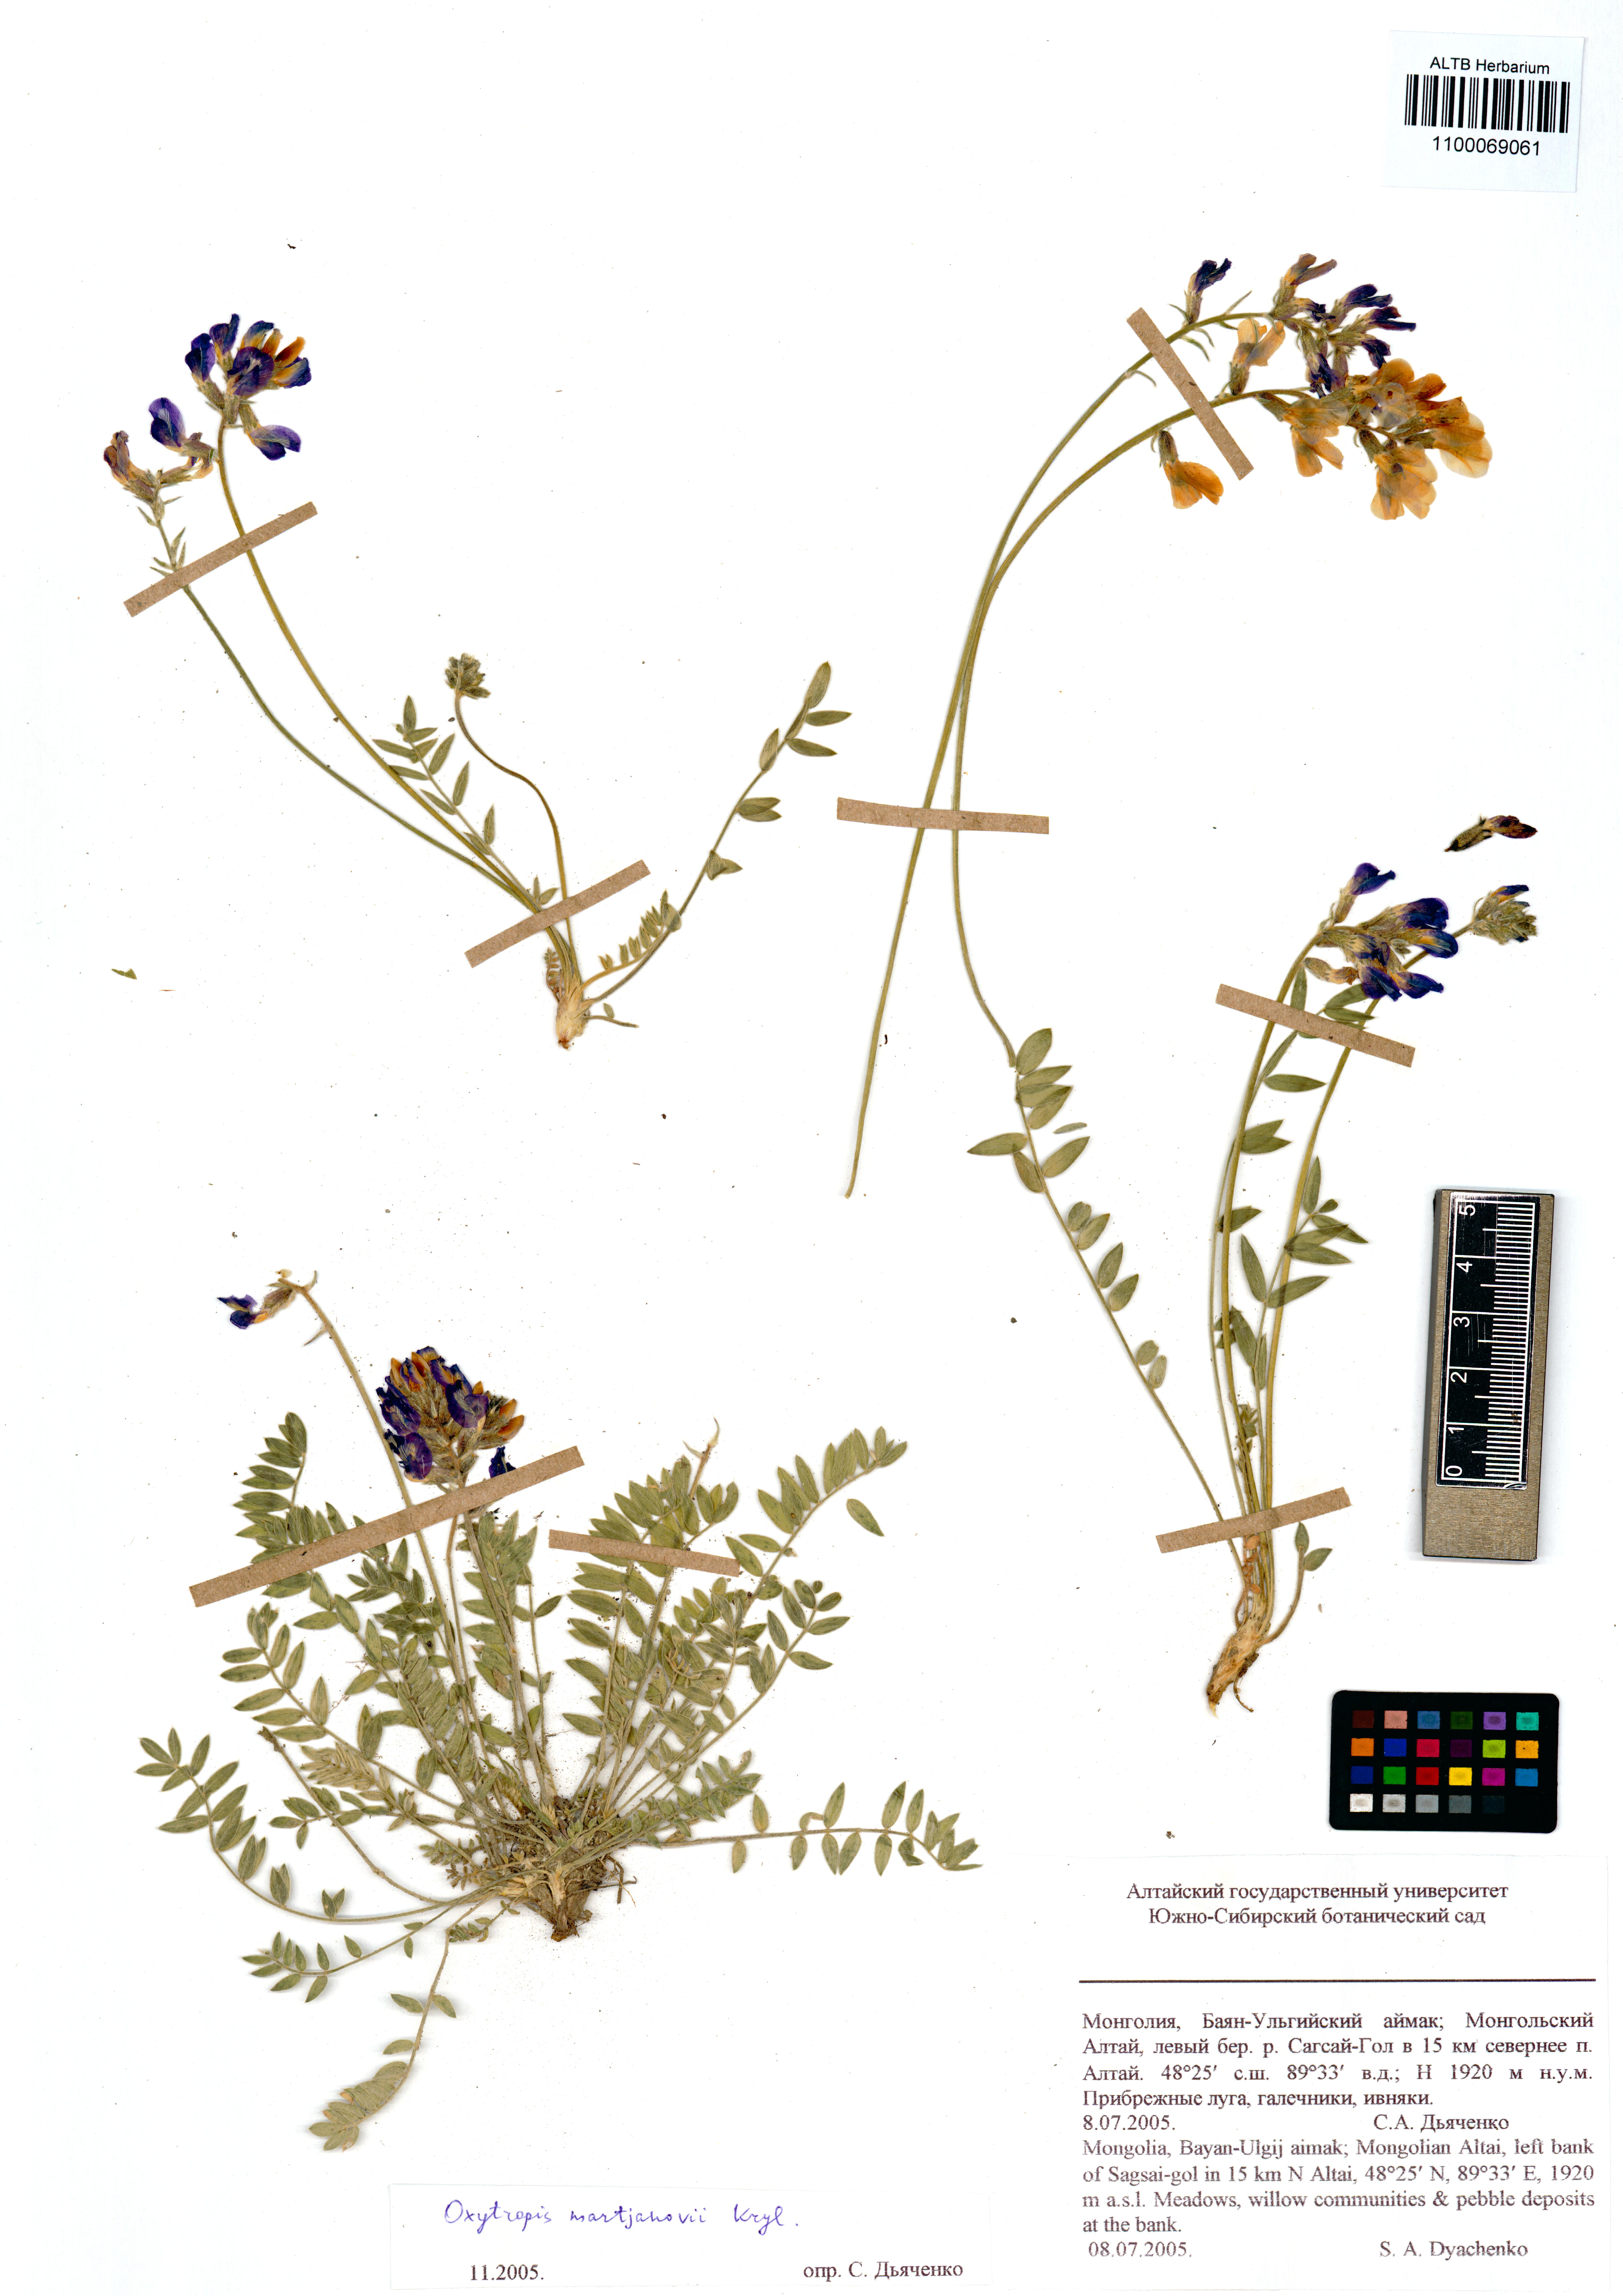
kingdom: Plantae
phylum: Tracheophyta
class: Magnoliopsida
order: Fabales
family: Fabaceae
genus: Oxytropis
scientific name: Oxytropis martjanovii
